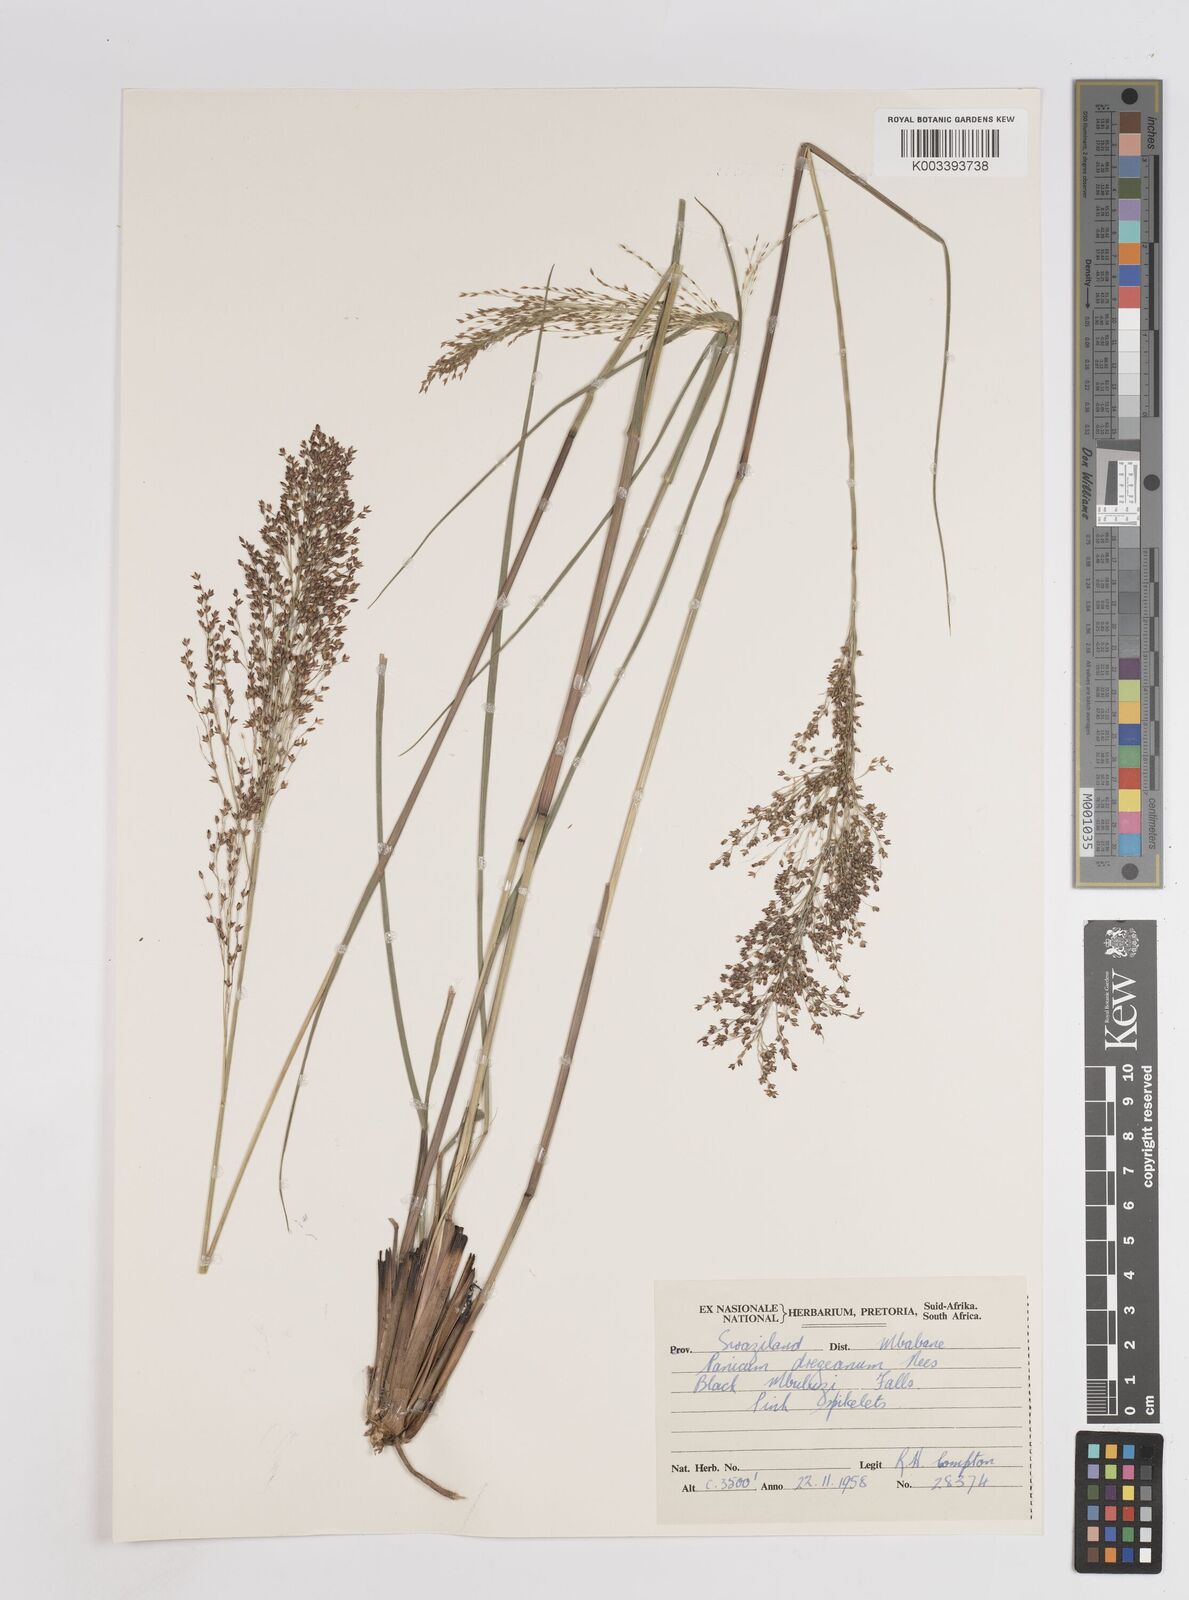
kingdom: Plantae
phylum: Tracheophyta
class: Liliopsida
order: Poales
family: Poaceae
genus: Panicum
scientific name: Panicum dregeanum
